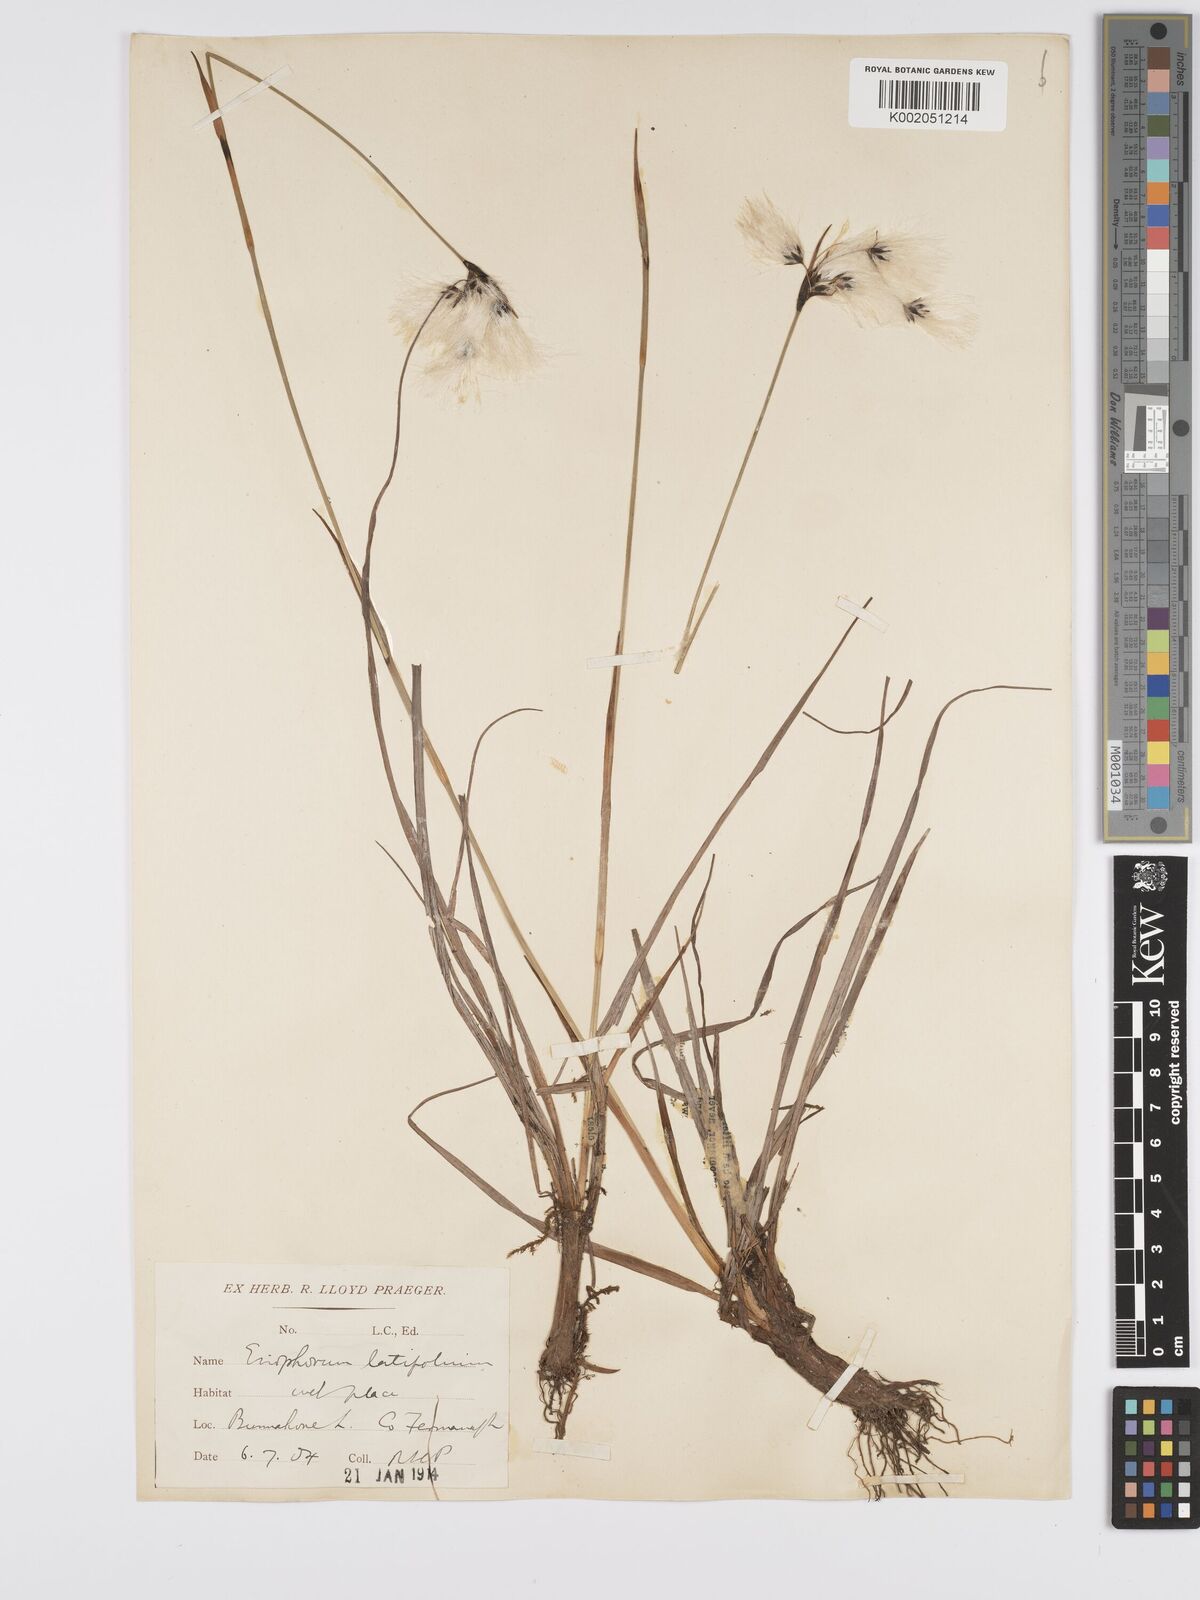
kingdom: Plantae
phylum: Tracheophyta
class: Liliopsida
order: Poales
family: Cyperaceae
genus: Eriophorum
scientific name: Eriophorum latifolium
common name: Broad-leaved cottongrass
